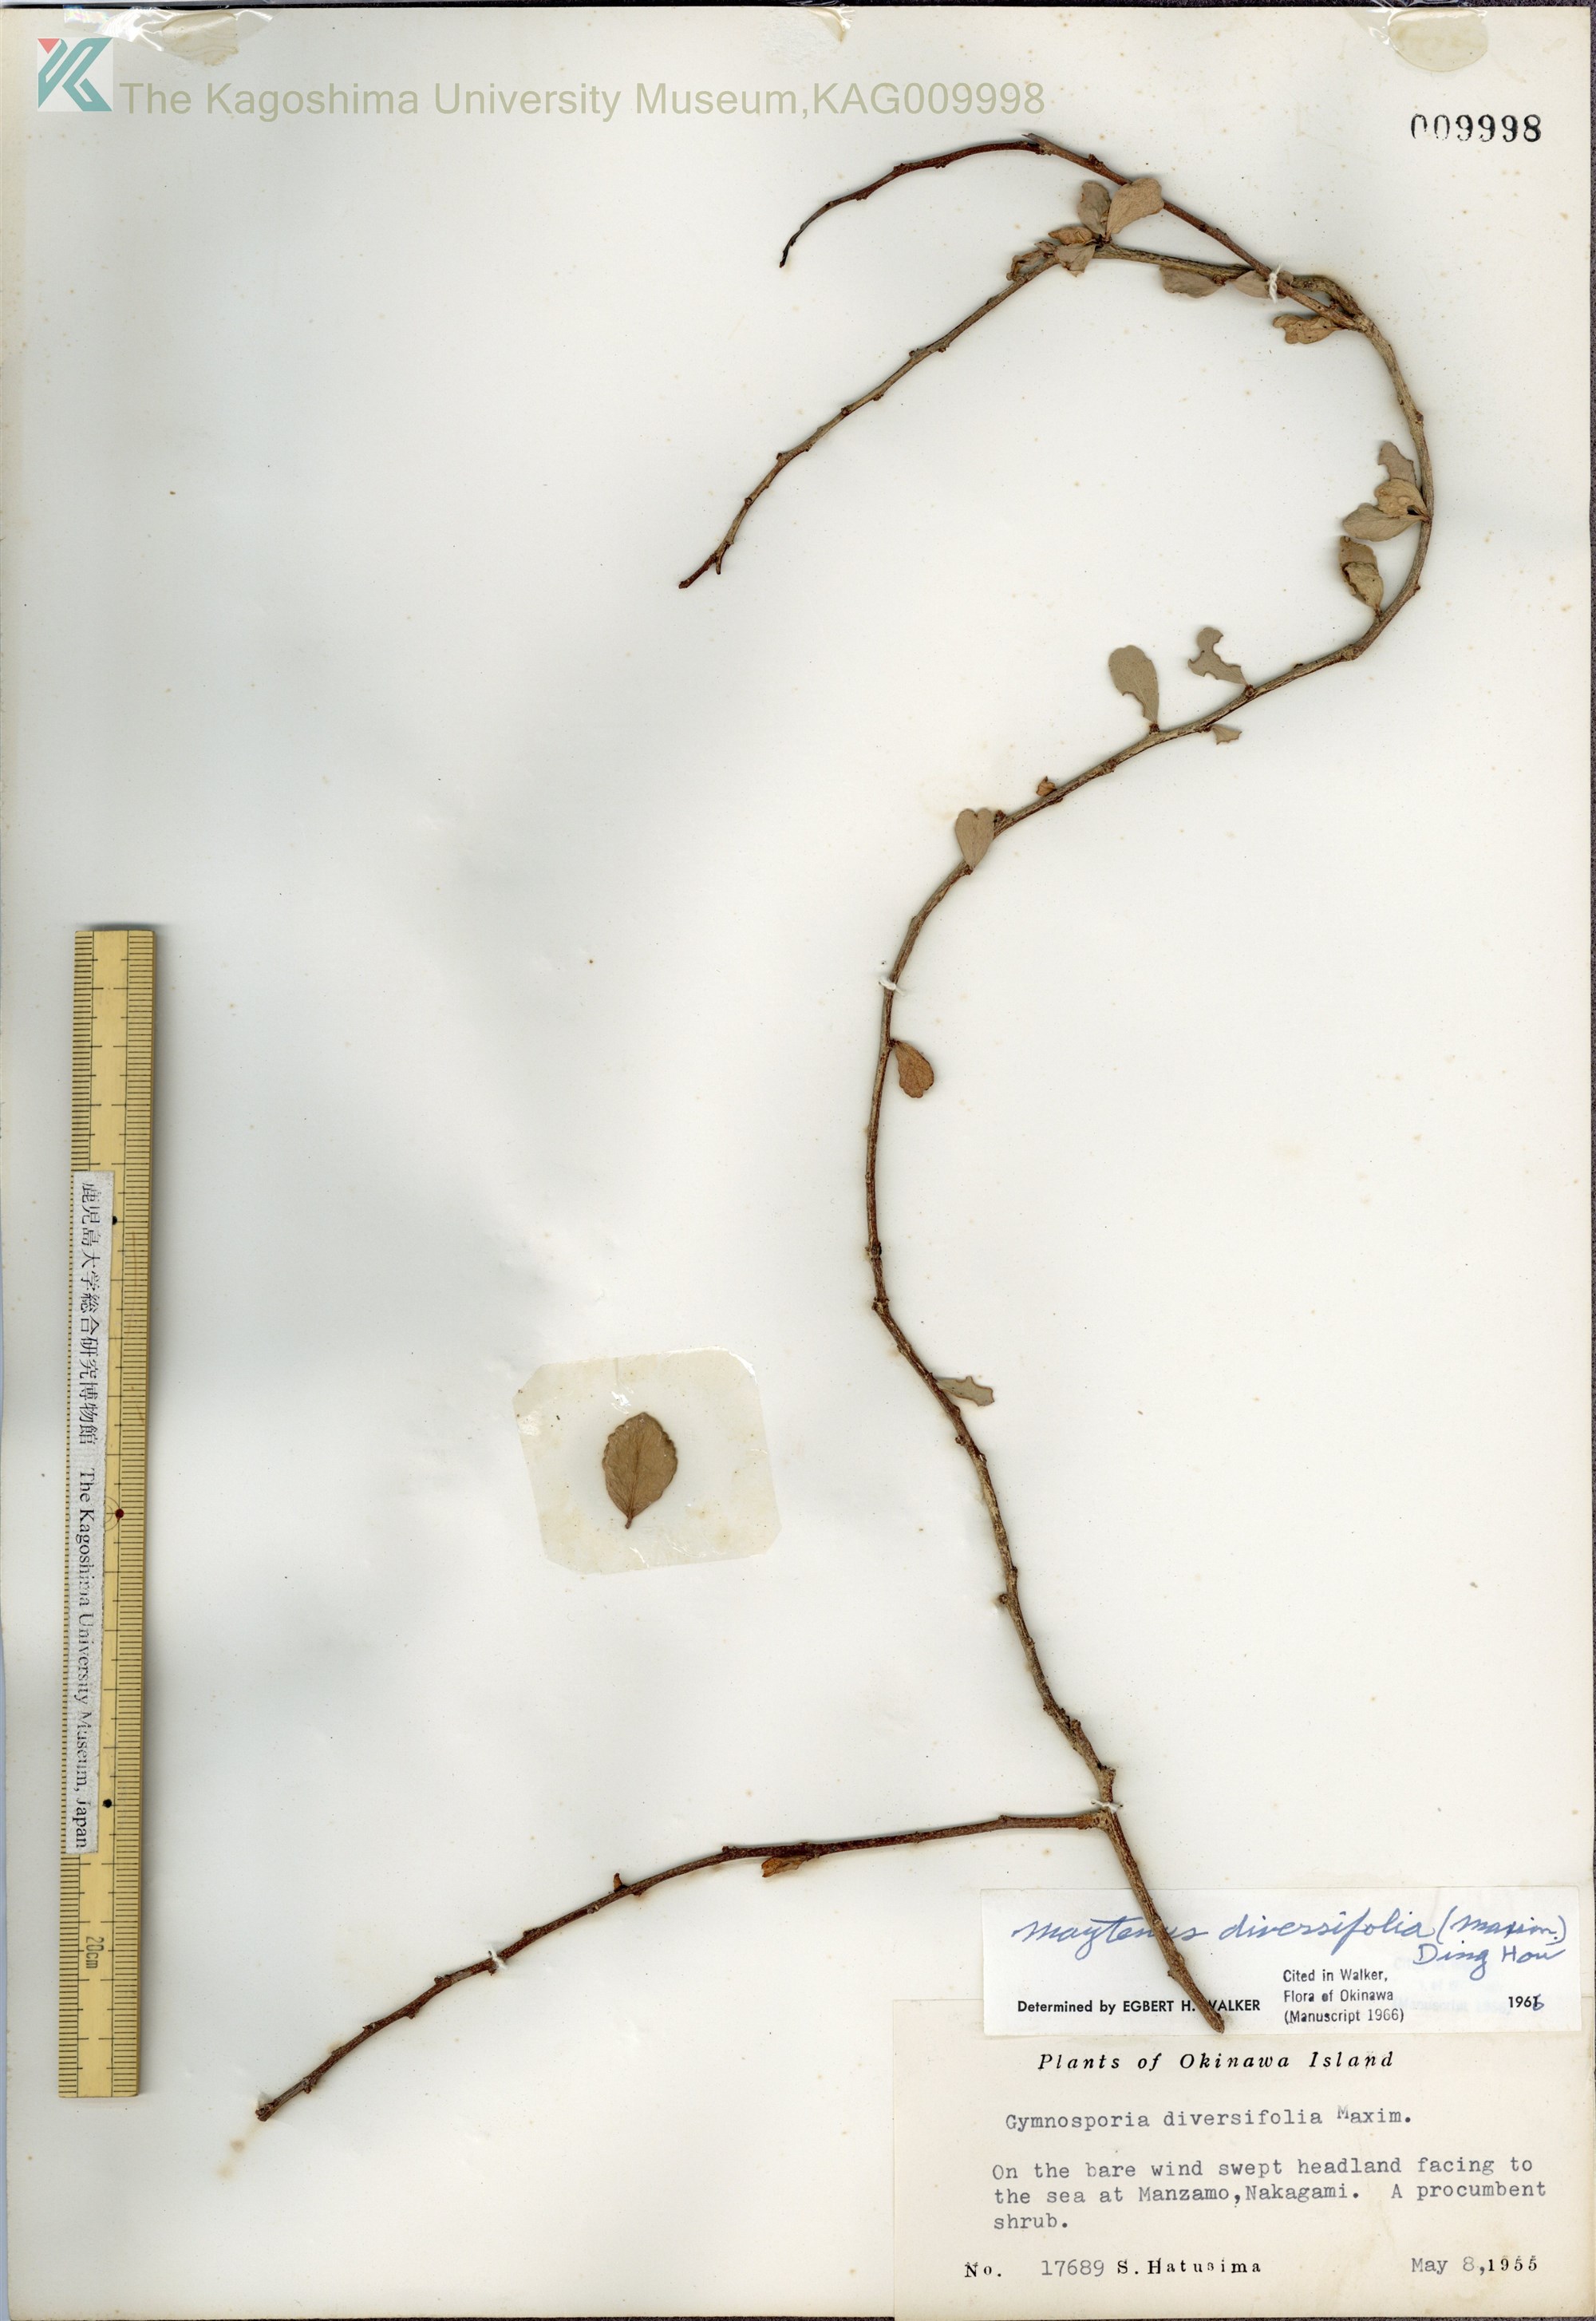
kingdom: Plantae
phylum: Tracheophyta
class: Magnoliopsida
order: Celastrales
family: Celastraceae
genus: Gymnosporia
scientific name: Gymnosporia diversifolia
